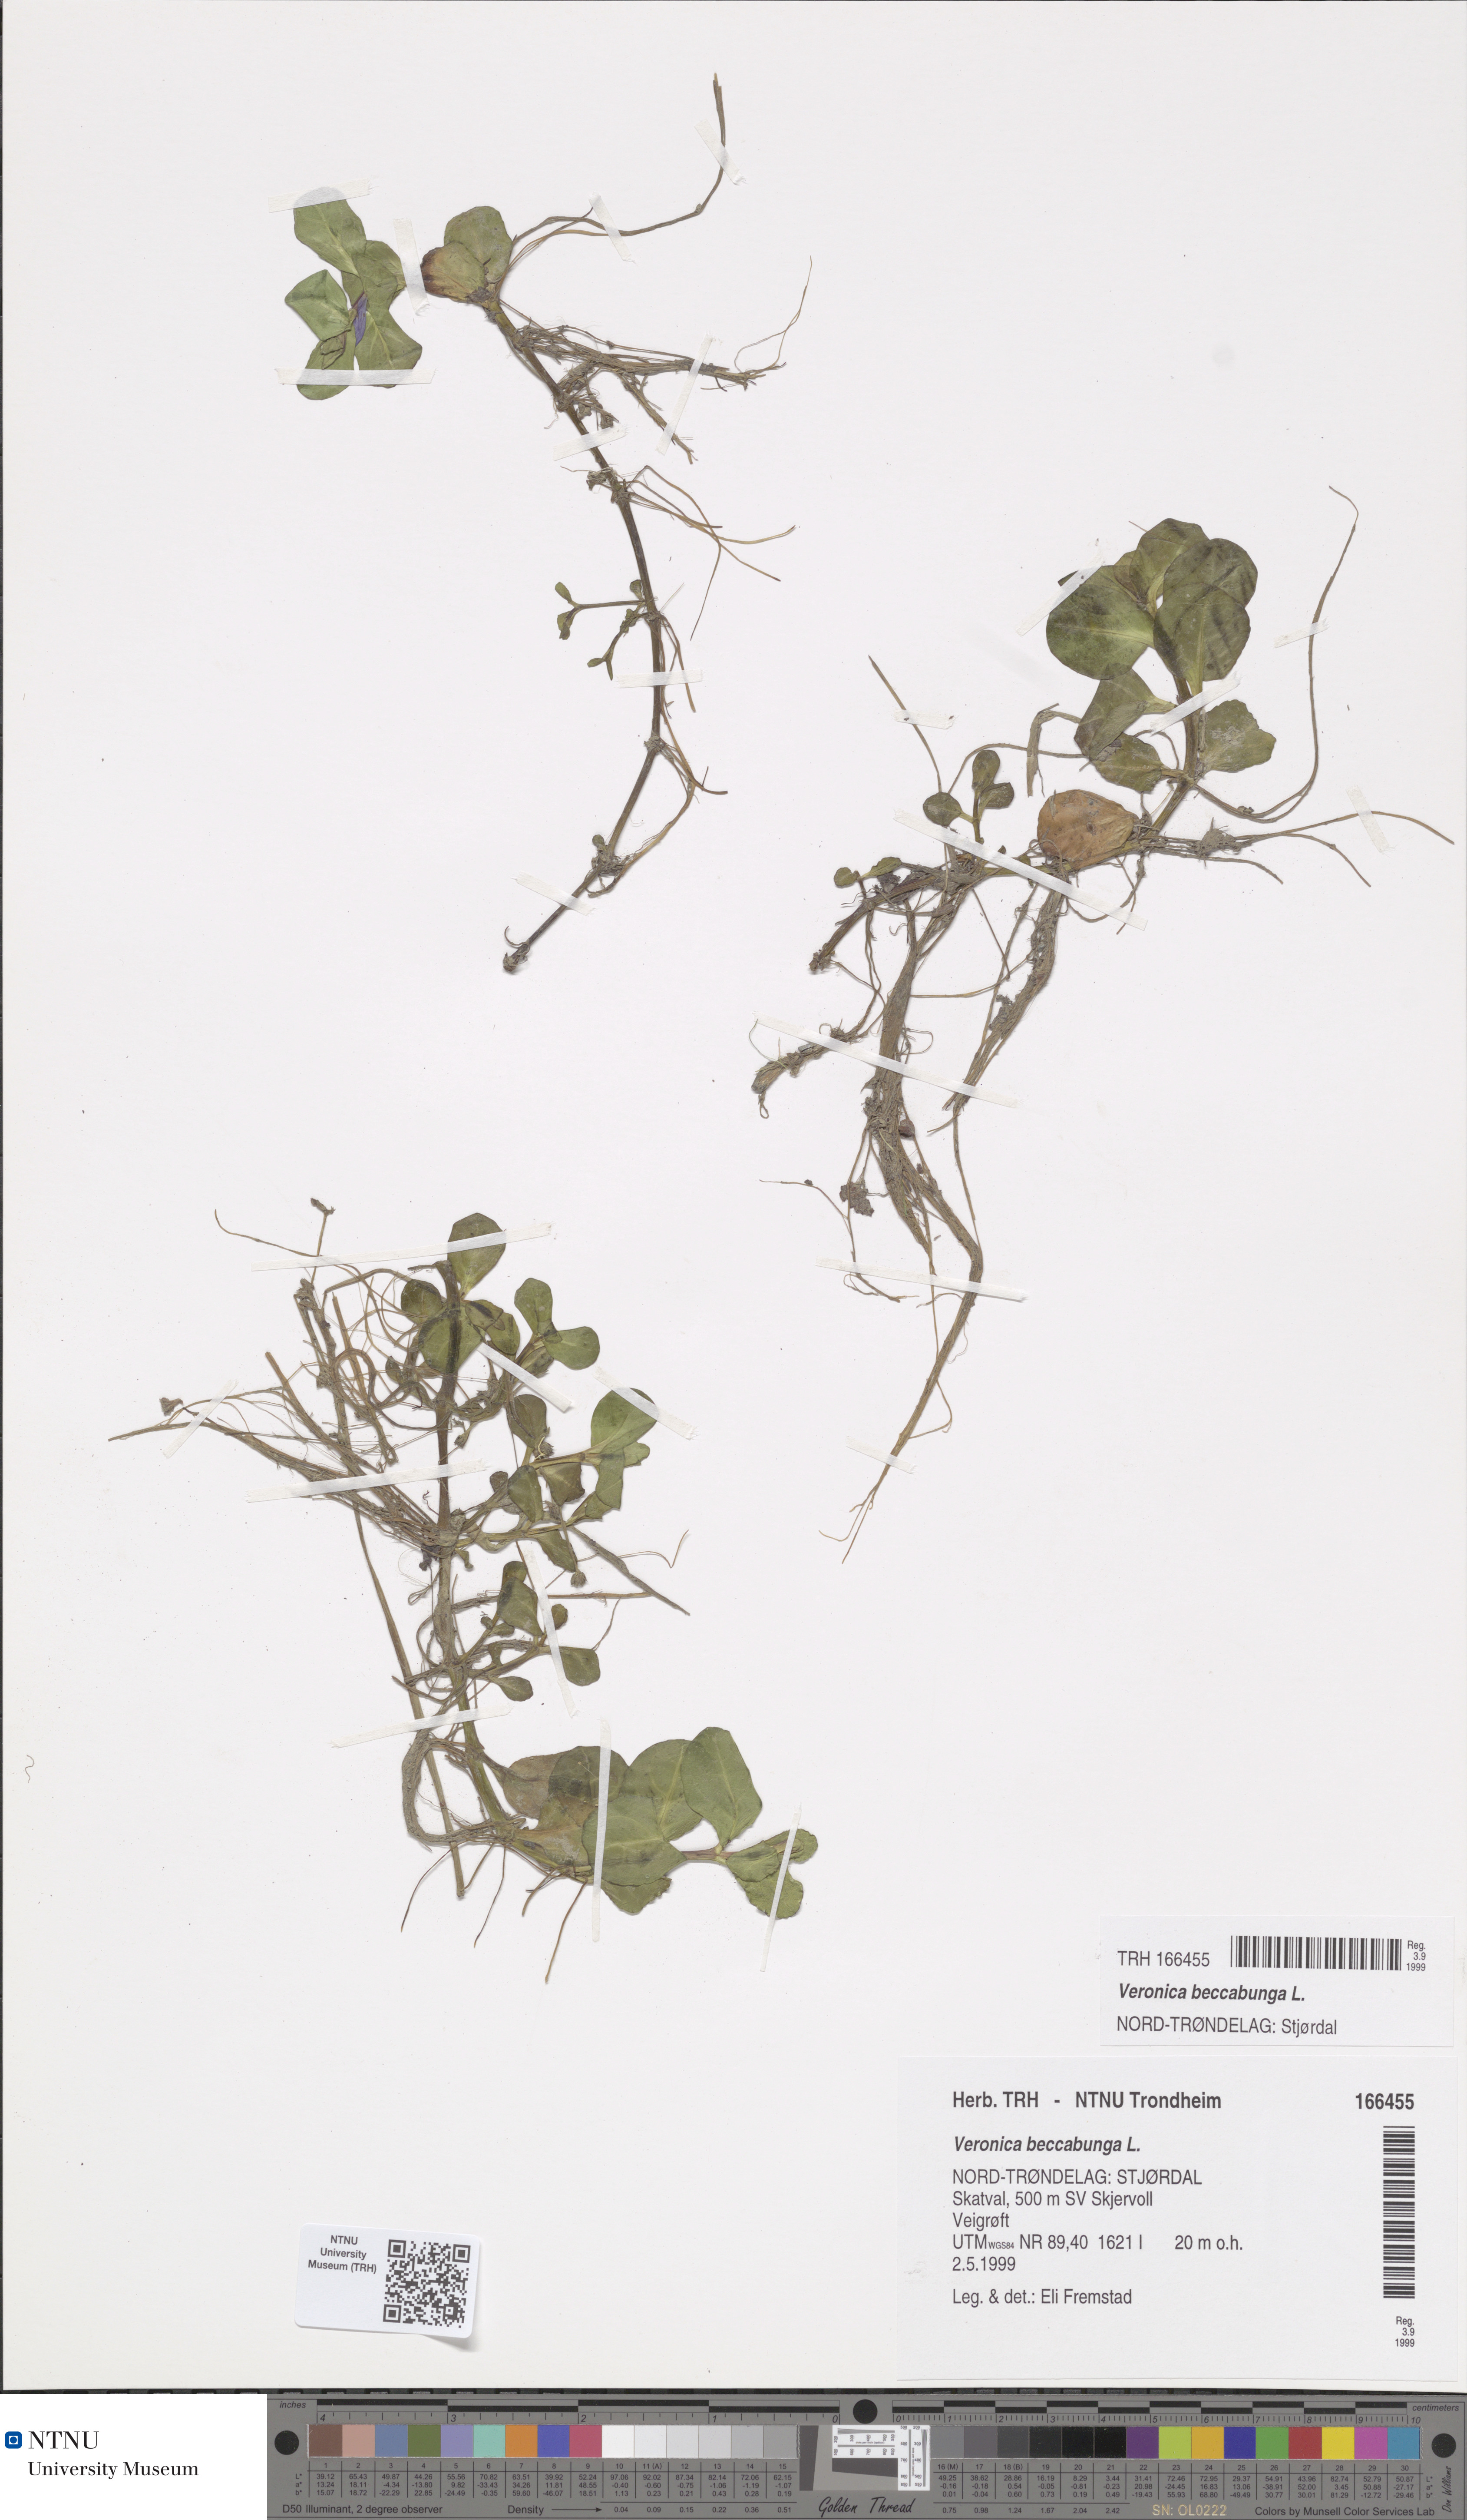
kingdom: Plantae
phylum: Tracheophyta
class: Magnoliopsida
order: Lamiales
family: Plantaginaceae
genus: Veronica
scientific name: Veronica beccabunga
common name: Brooklime
